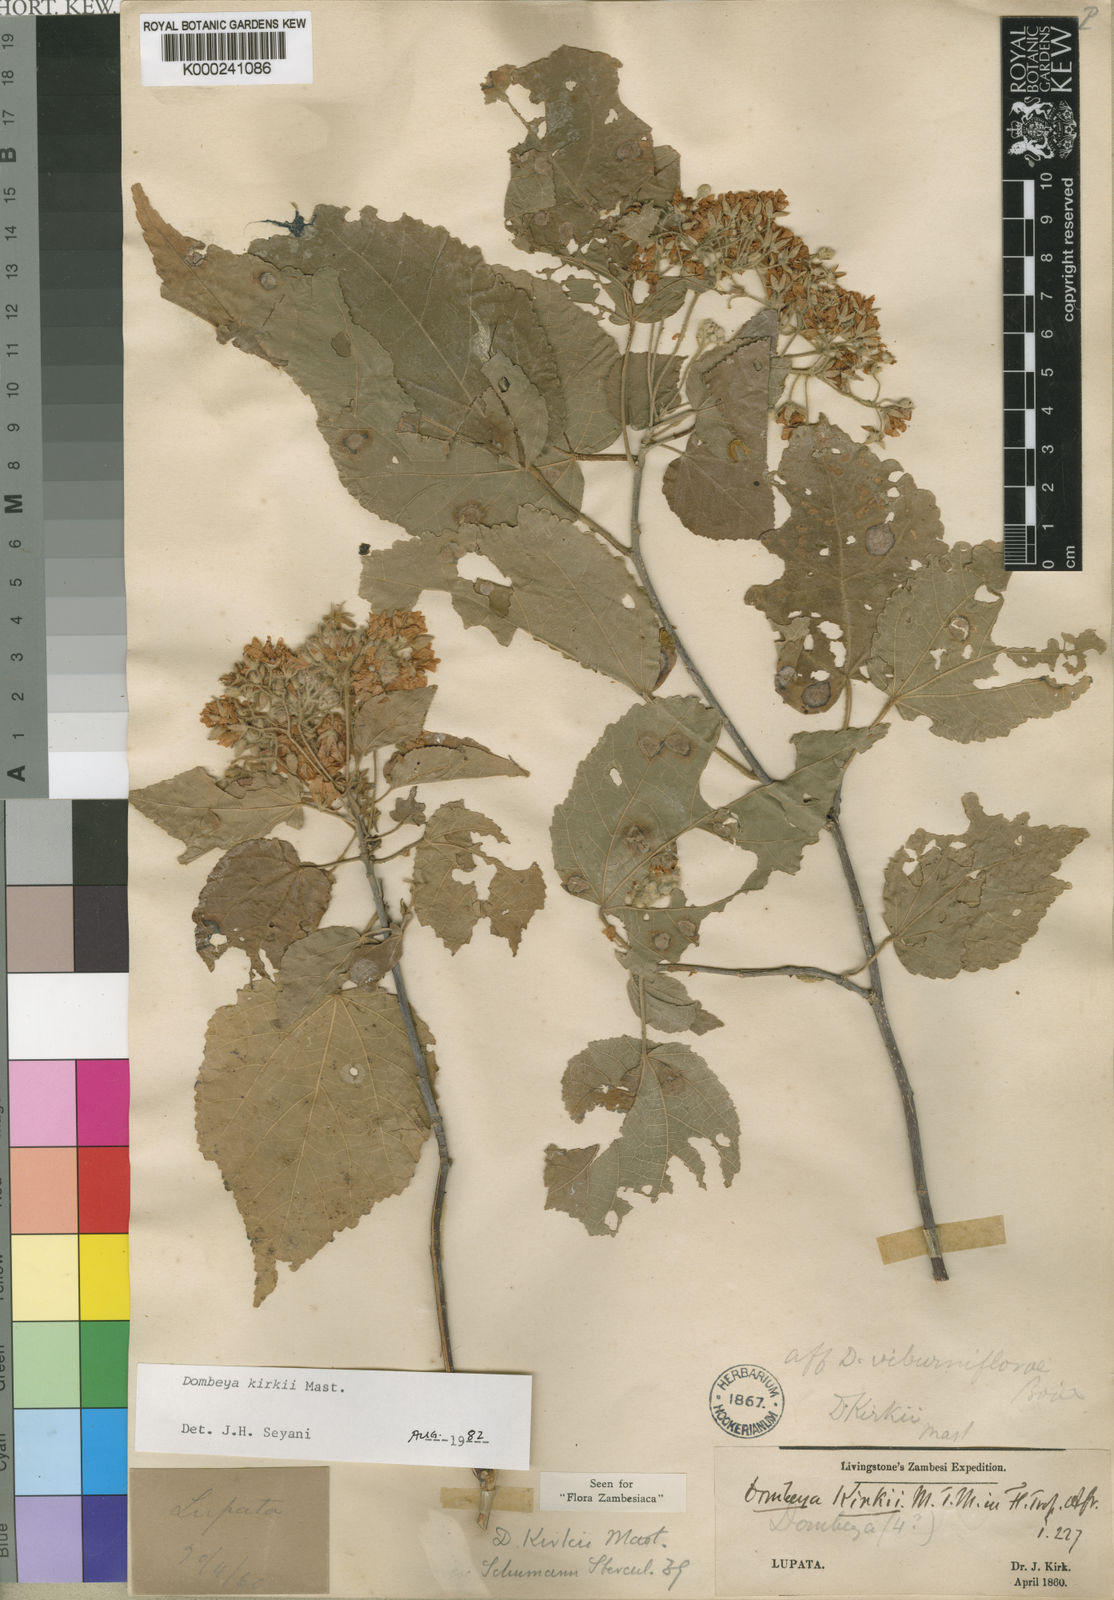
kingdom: Plantae
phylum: Tracheophyta
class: Magnoliopsida
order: Malvales
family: Malvaceae
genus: Dombeya
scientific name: Dombeya kirkii
